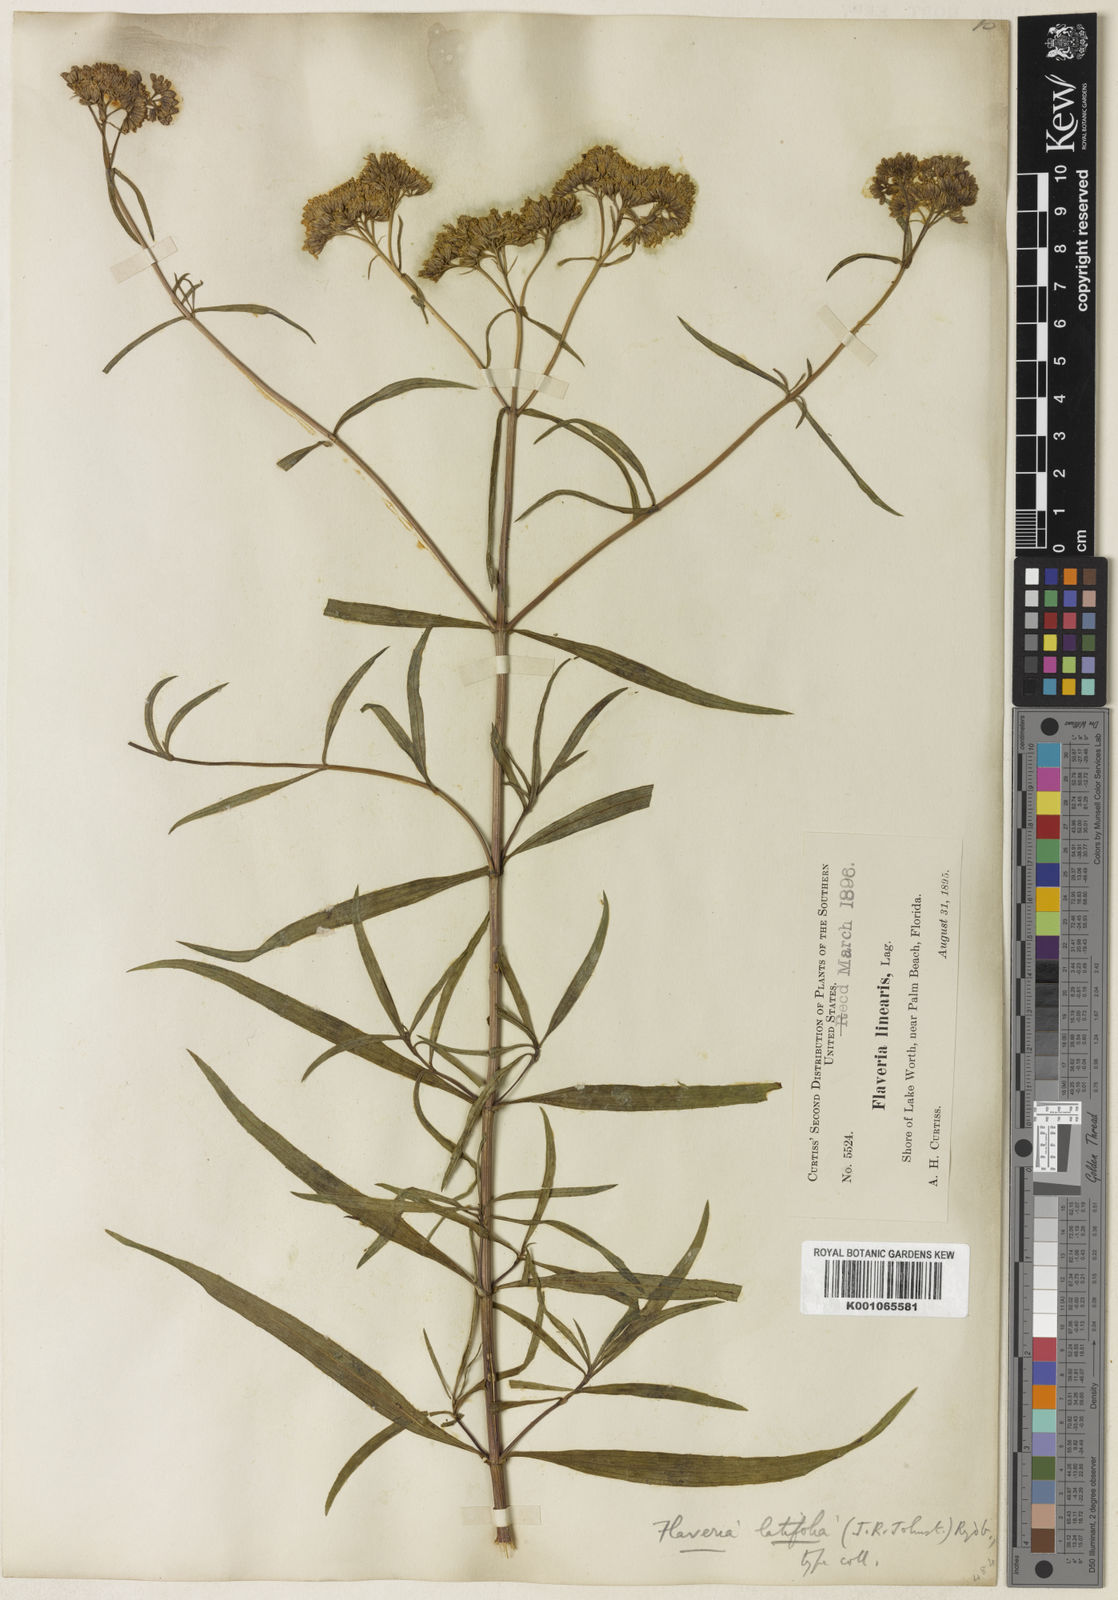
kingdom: Plantae
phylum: Tracheophyta
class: Magnoliopsida
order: Asterales
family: Asteraceae
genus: Flaveria
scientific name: Flaveria floridana
